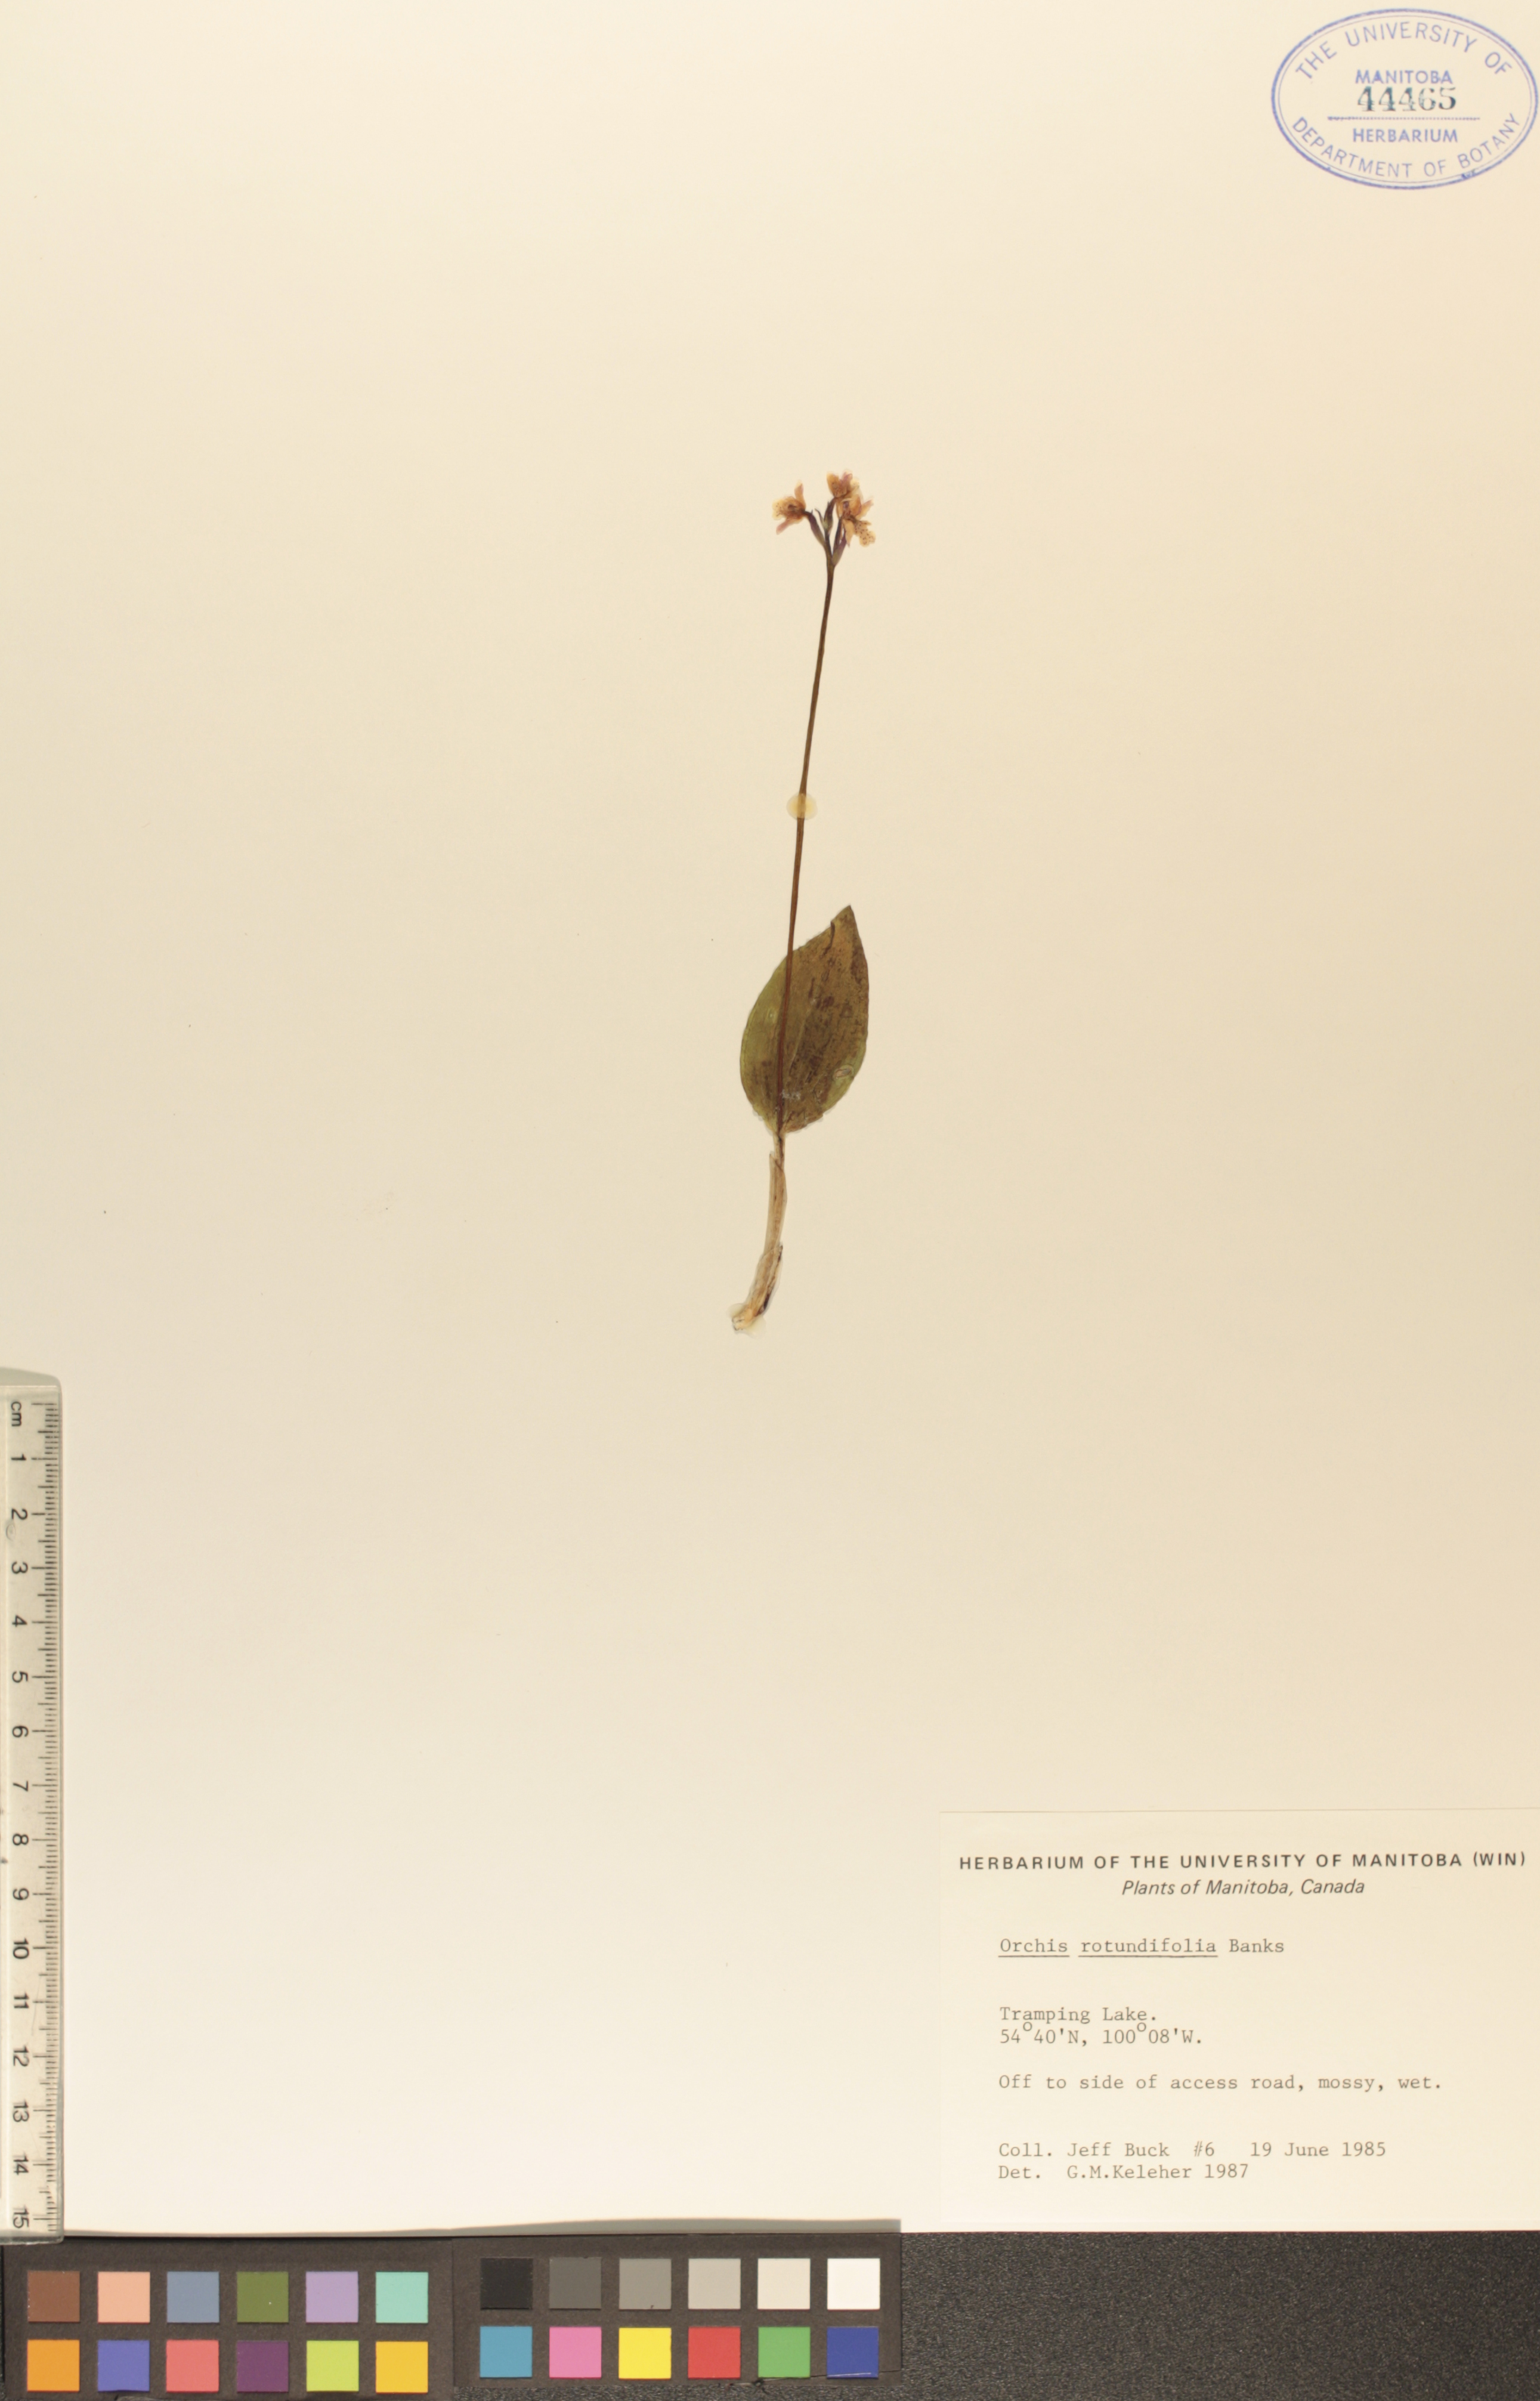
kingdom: Plantae
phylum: Tracheophyta
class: Liliopsida
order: Asparagales
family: Orchidaceae
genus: Galearis
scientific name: Galearis rotundifolia
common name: One-leaved orchis
